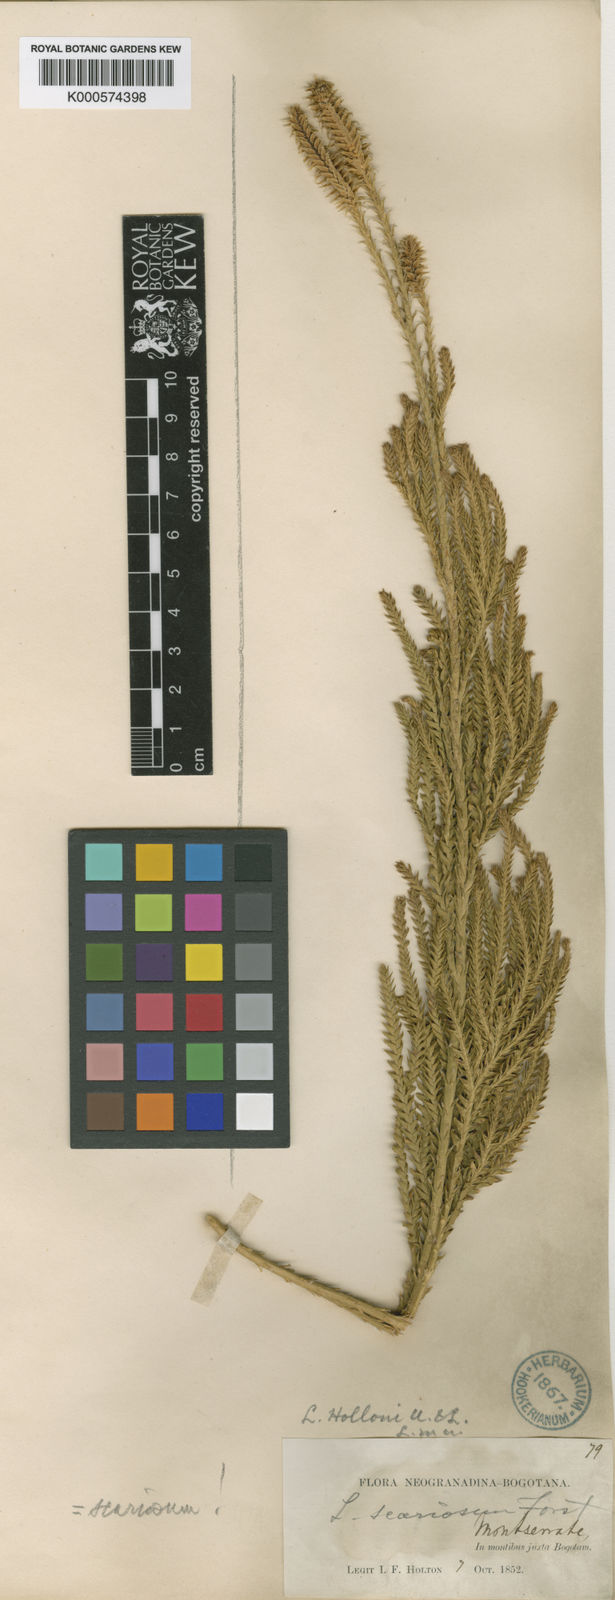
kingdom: Plantae
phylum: Tracheophyta
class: Lycopodiopsida
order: Lycopodiales
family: Lycopodiaceae
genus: Diphasium
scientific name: Diphasium jussiaei
